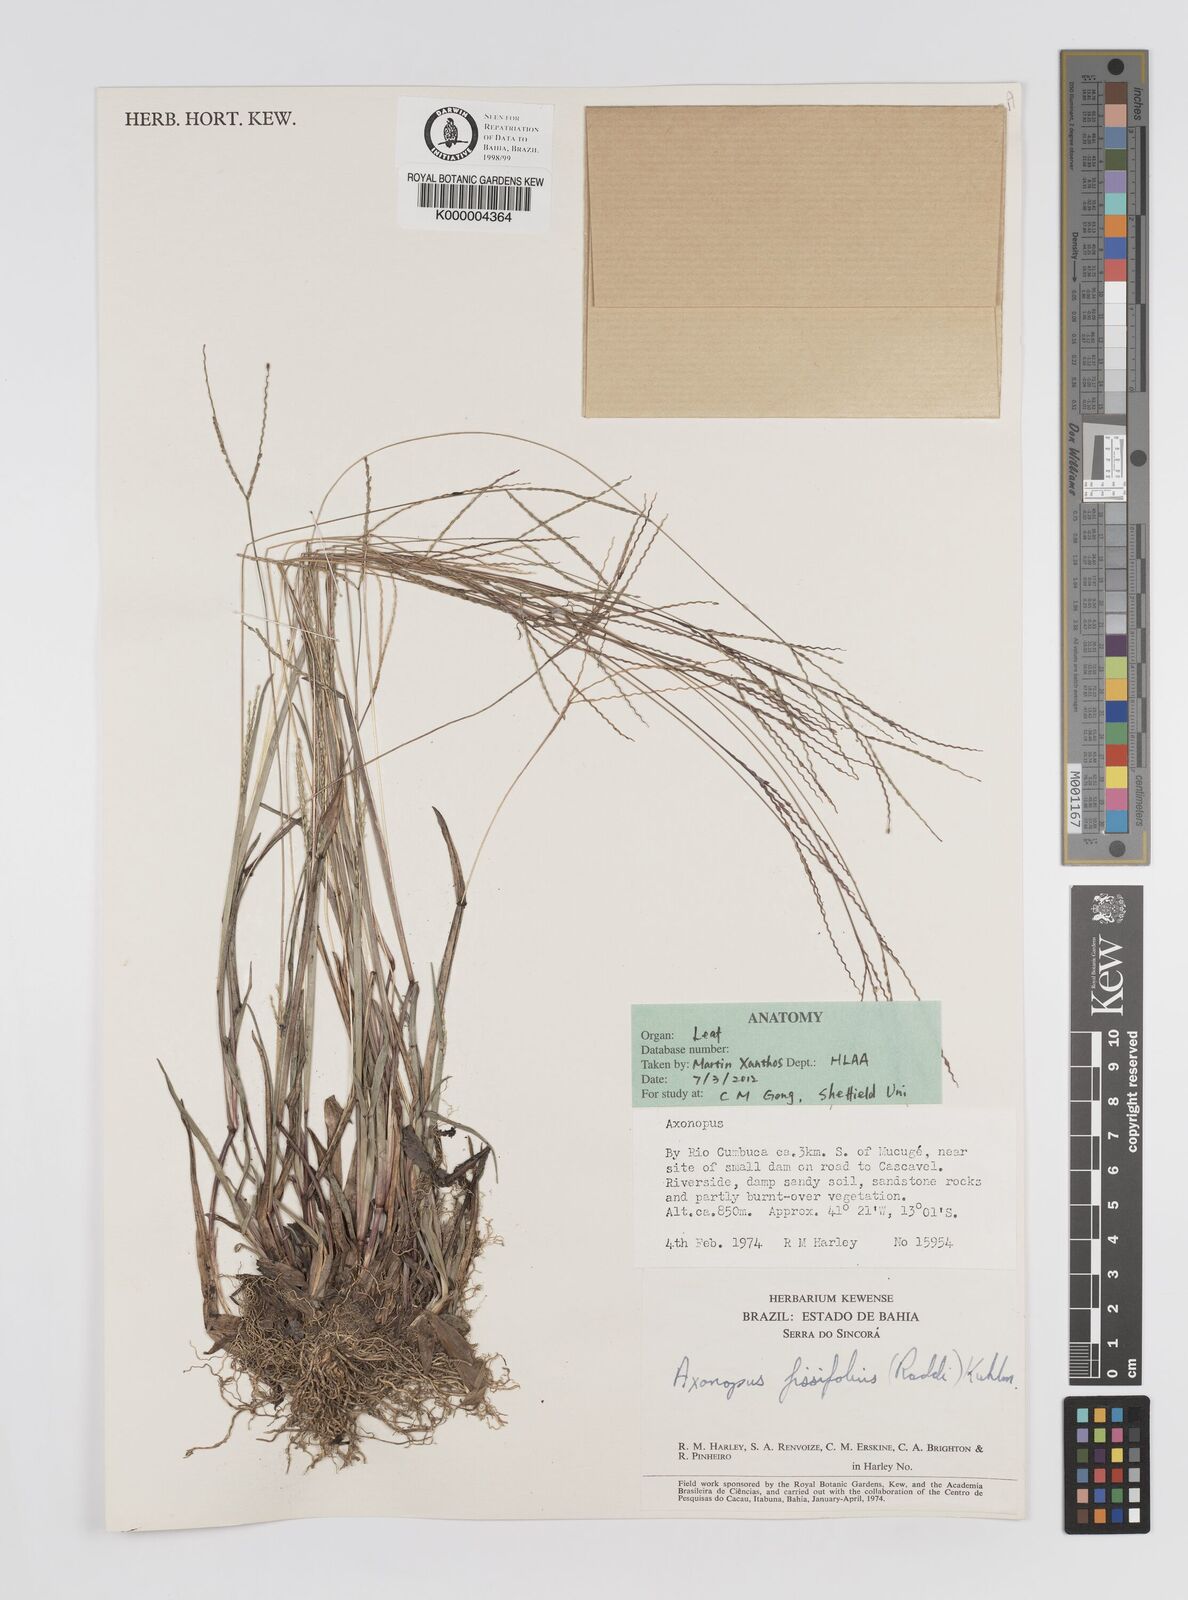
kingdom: Plantae
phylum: Tracheophyta
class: Liliopsida
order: Poales
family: Poaceae
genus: Axonopus
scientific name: Axonopus fissifolius
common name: Common carpetgrass
